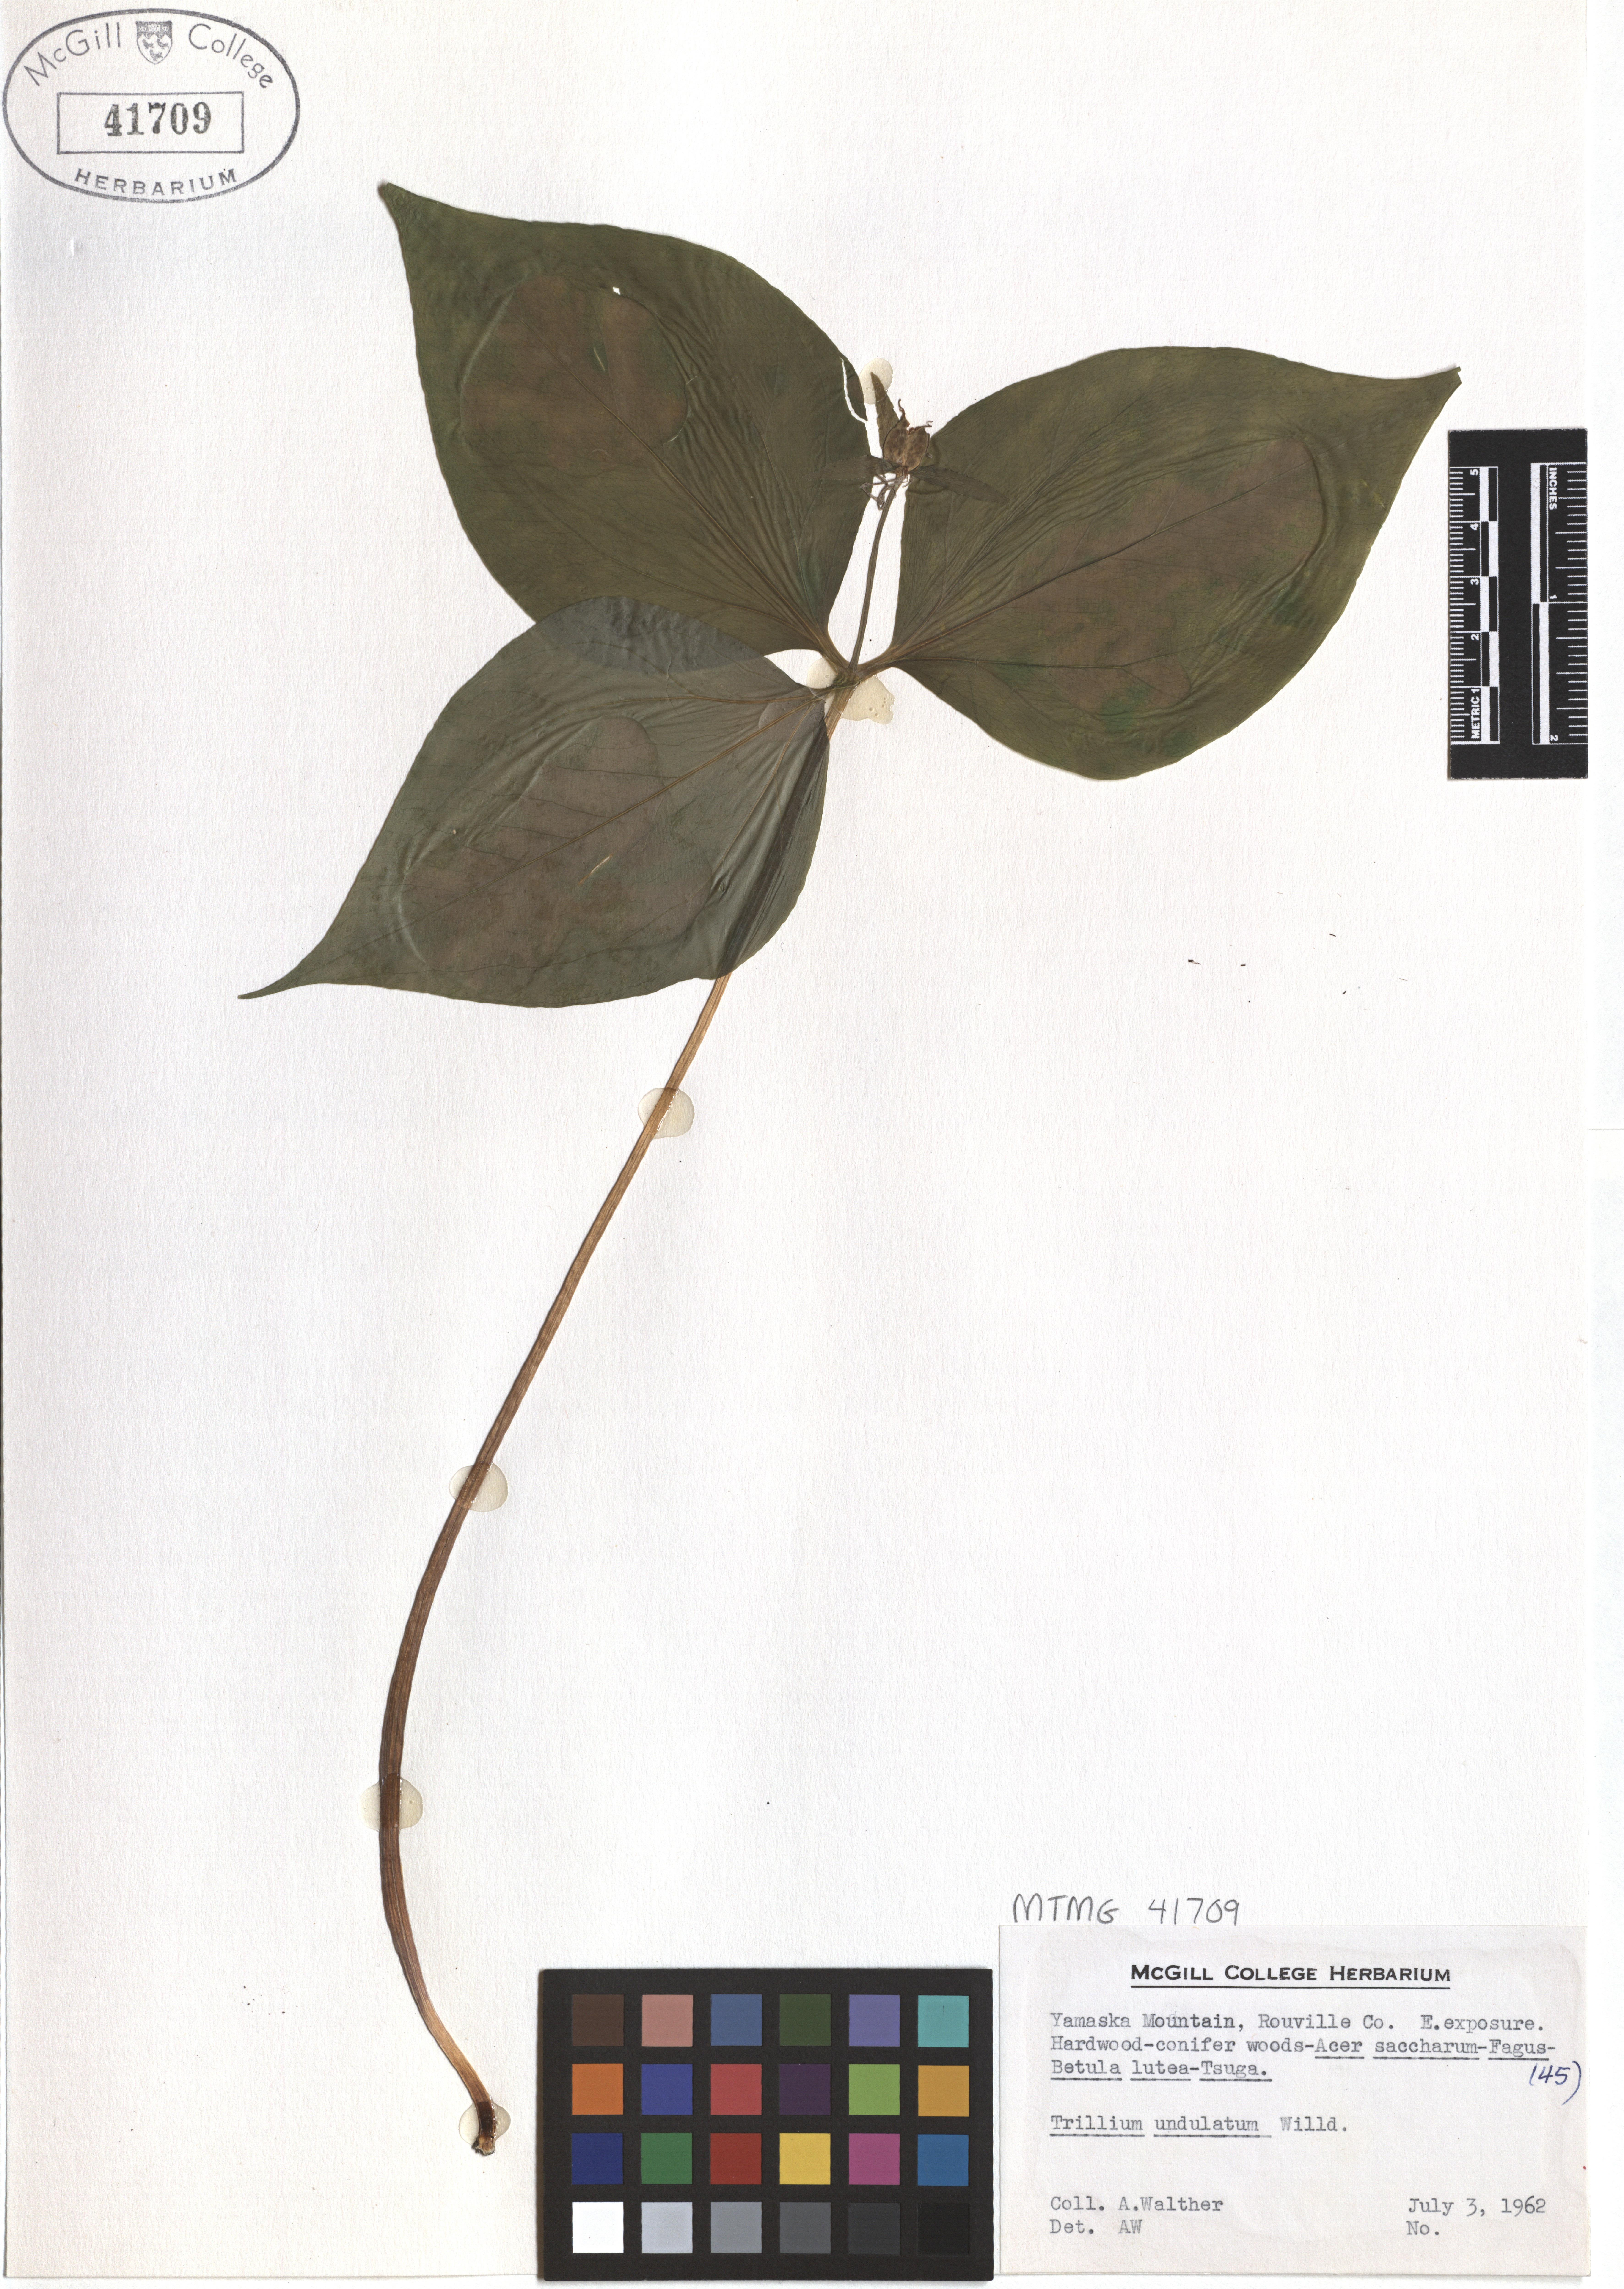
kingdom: Plantae
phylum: Tracheophyta
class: Liliopsida
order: Liliales
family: Melanthiaceae
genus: Trillium
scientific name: Trillium undulatum
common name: Paint trillium
